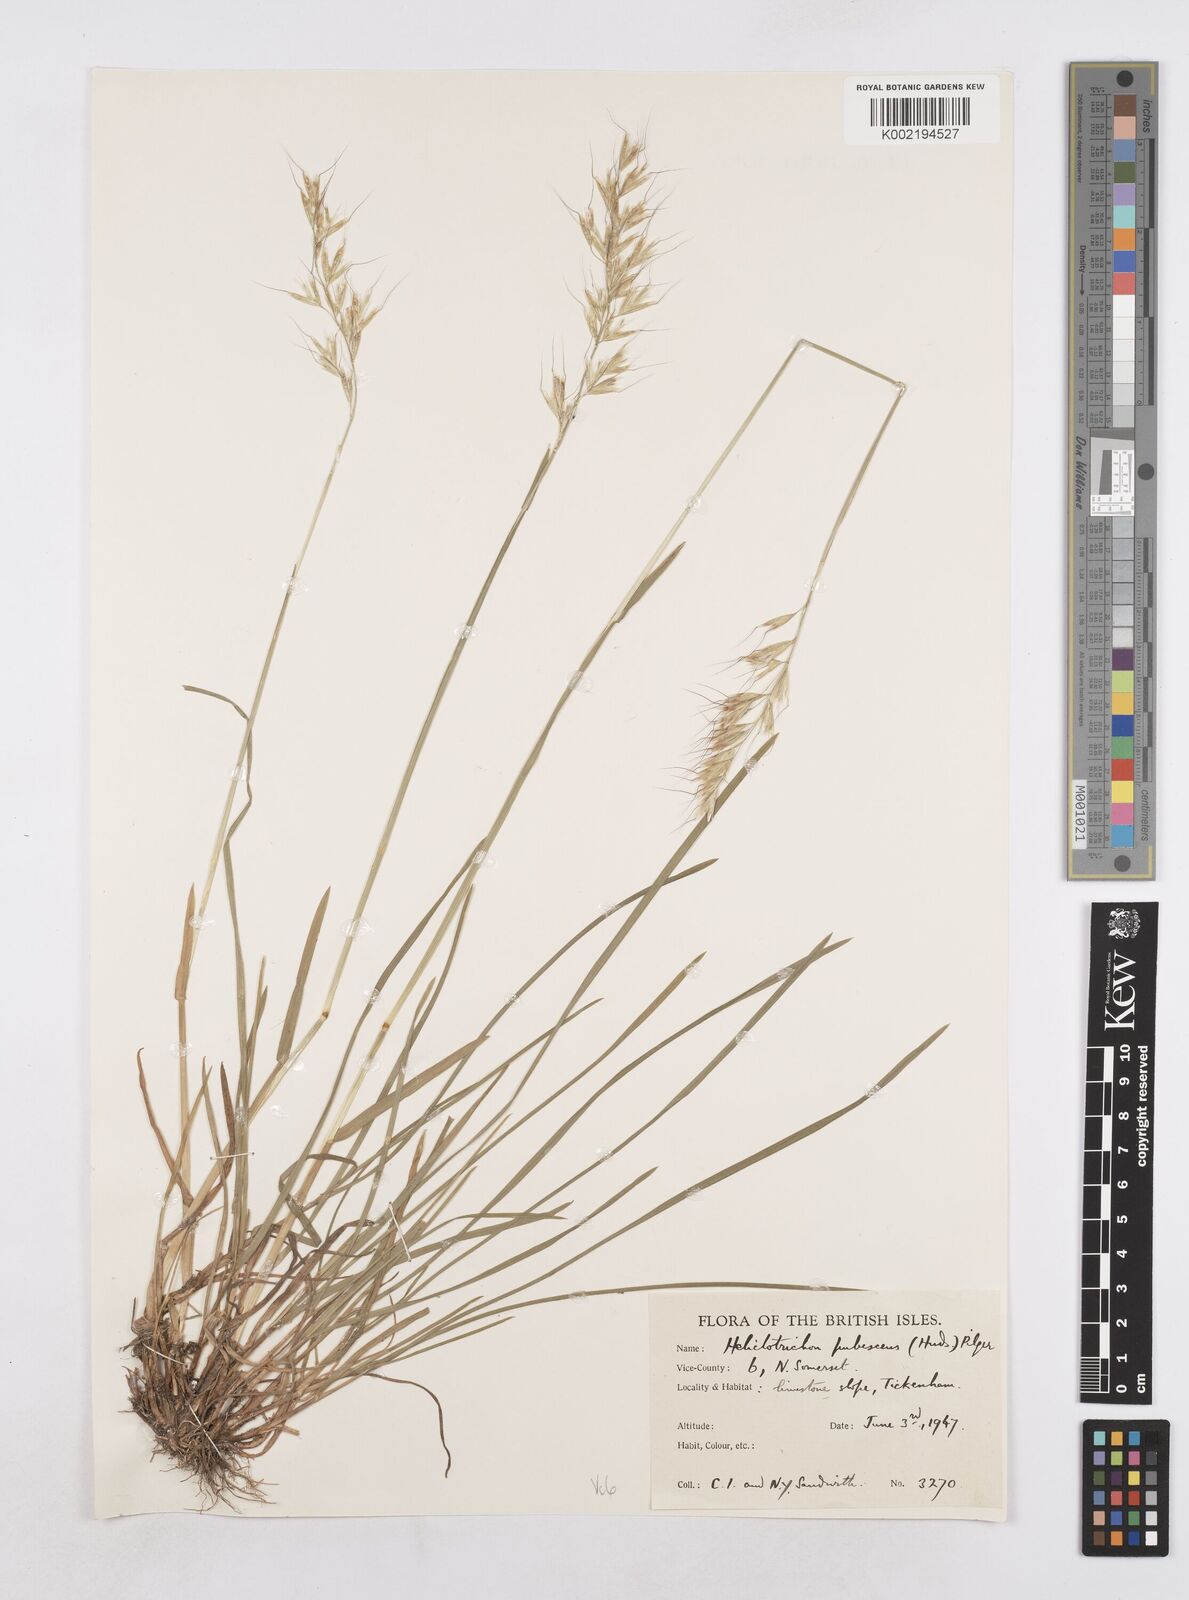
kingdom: Plantae
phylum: Tracheophyta
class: Liliopsida
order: Poales
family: Poaceae
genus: Avenula
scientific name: Avenula pubescens
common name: Downy alpine oatgrass
